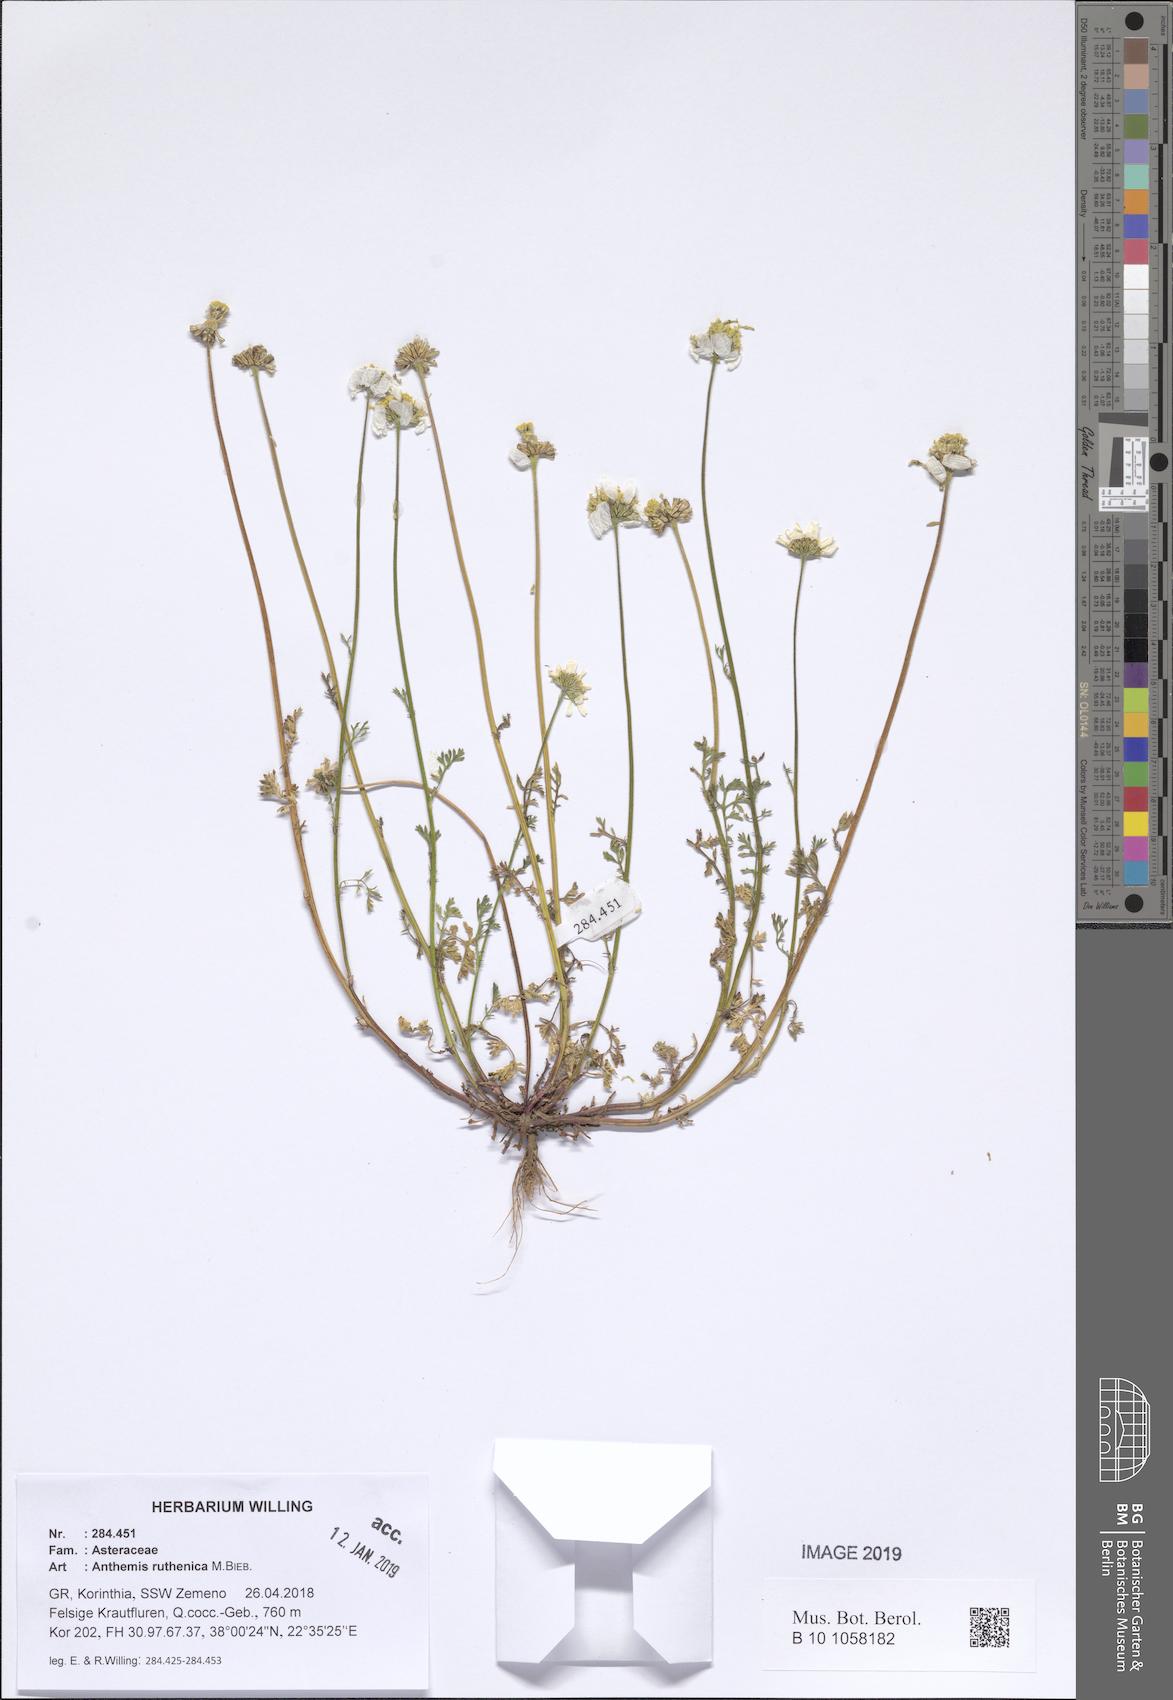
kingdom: Plantae
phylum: Tracheophyta
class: Magnoliopsida
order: Asterales
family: Asteraceae
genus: Anthemis
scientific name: Anthemis ruthenica
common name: Eastern chamomile
